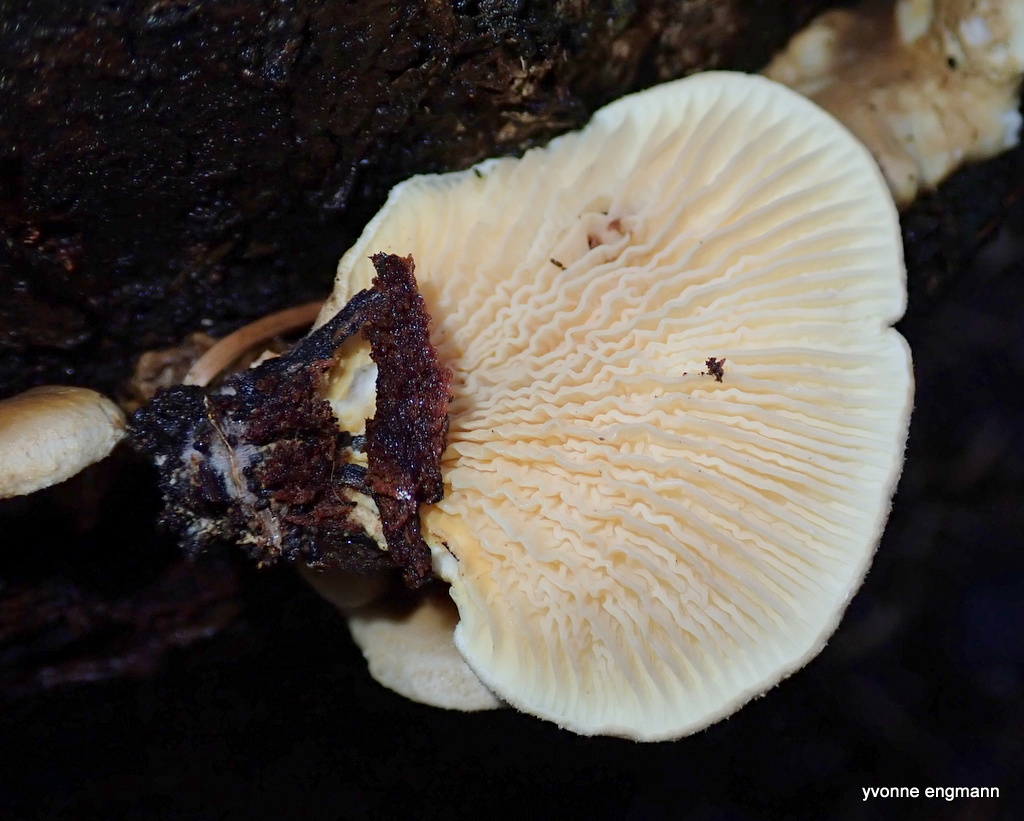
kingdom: Fungi
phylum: Basidiomycota
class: Agaricomycetes
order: Boletales
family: Tapinellaceae
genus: Tapinella
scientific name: Tapinella panuoides
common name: tømmer-viftesvamp
